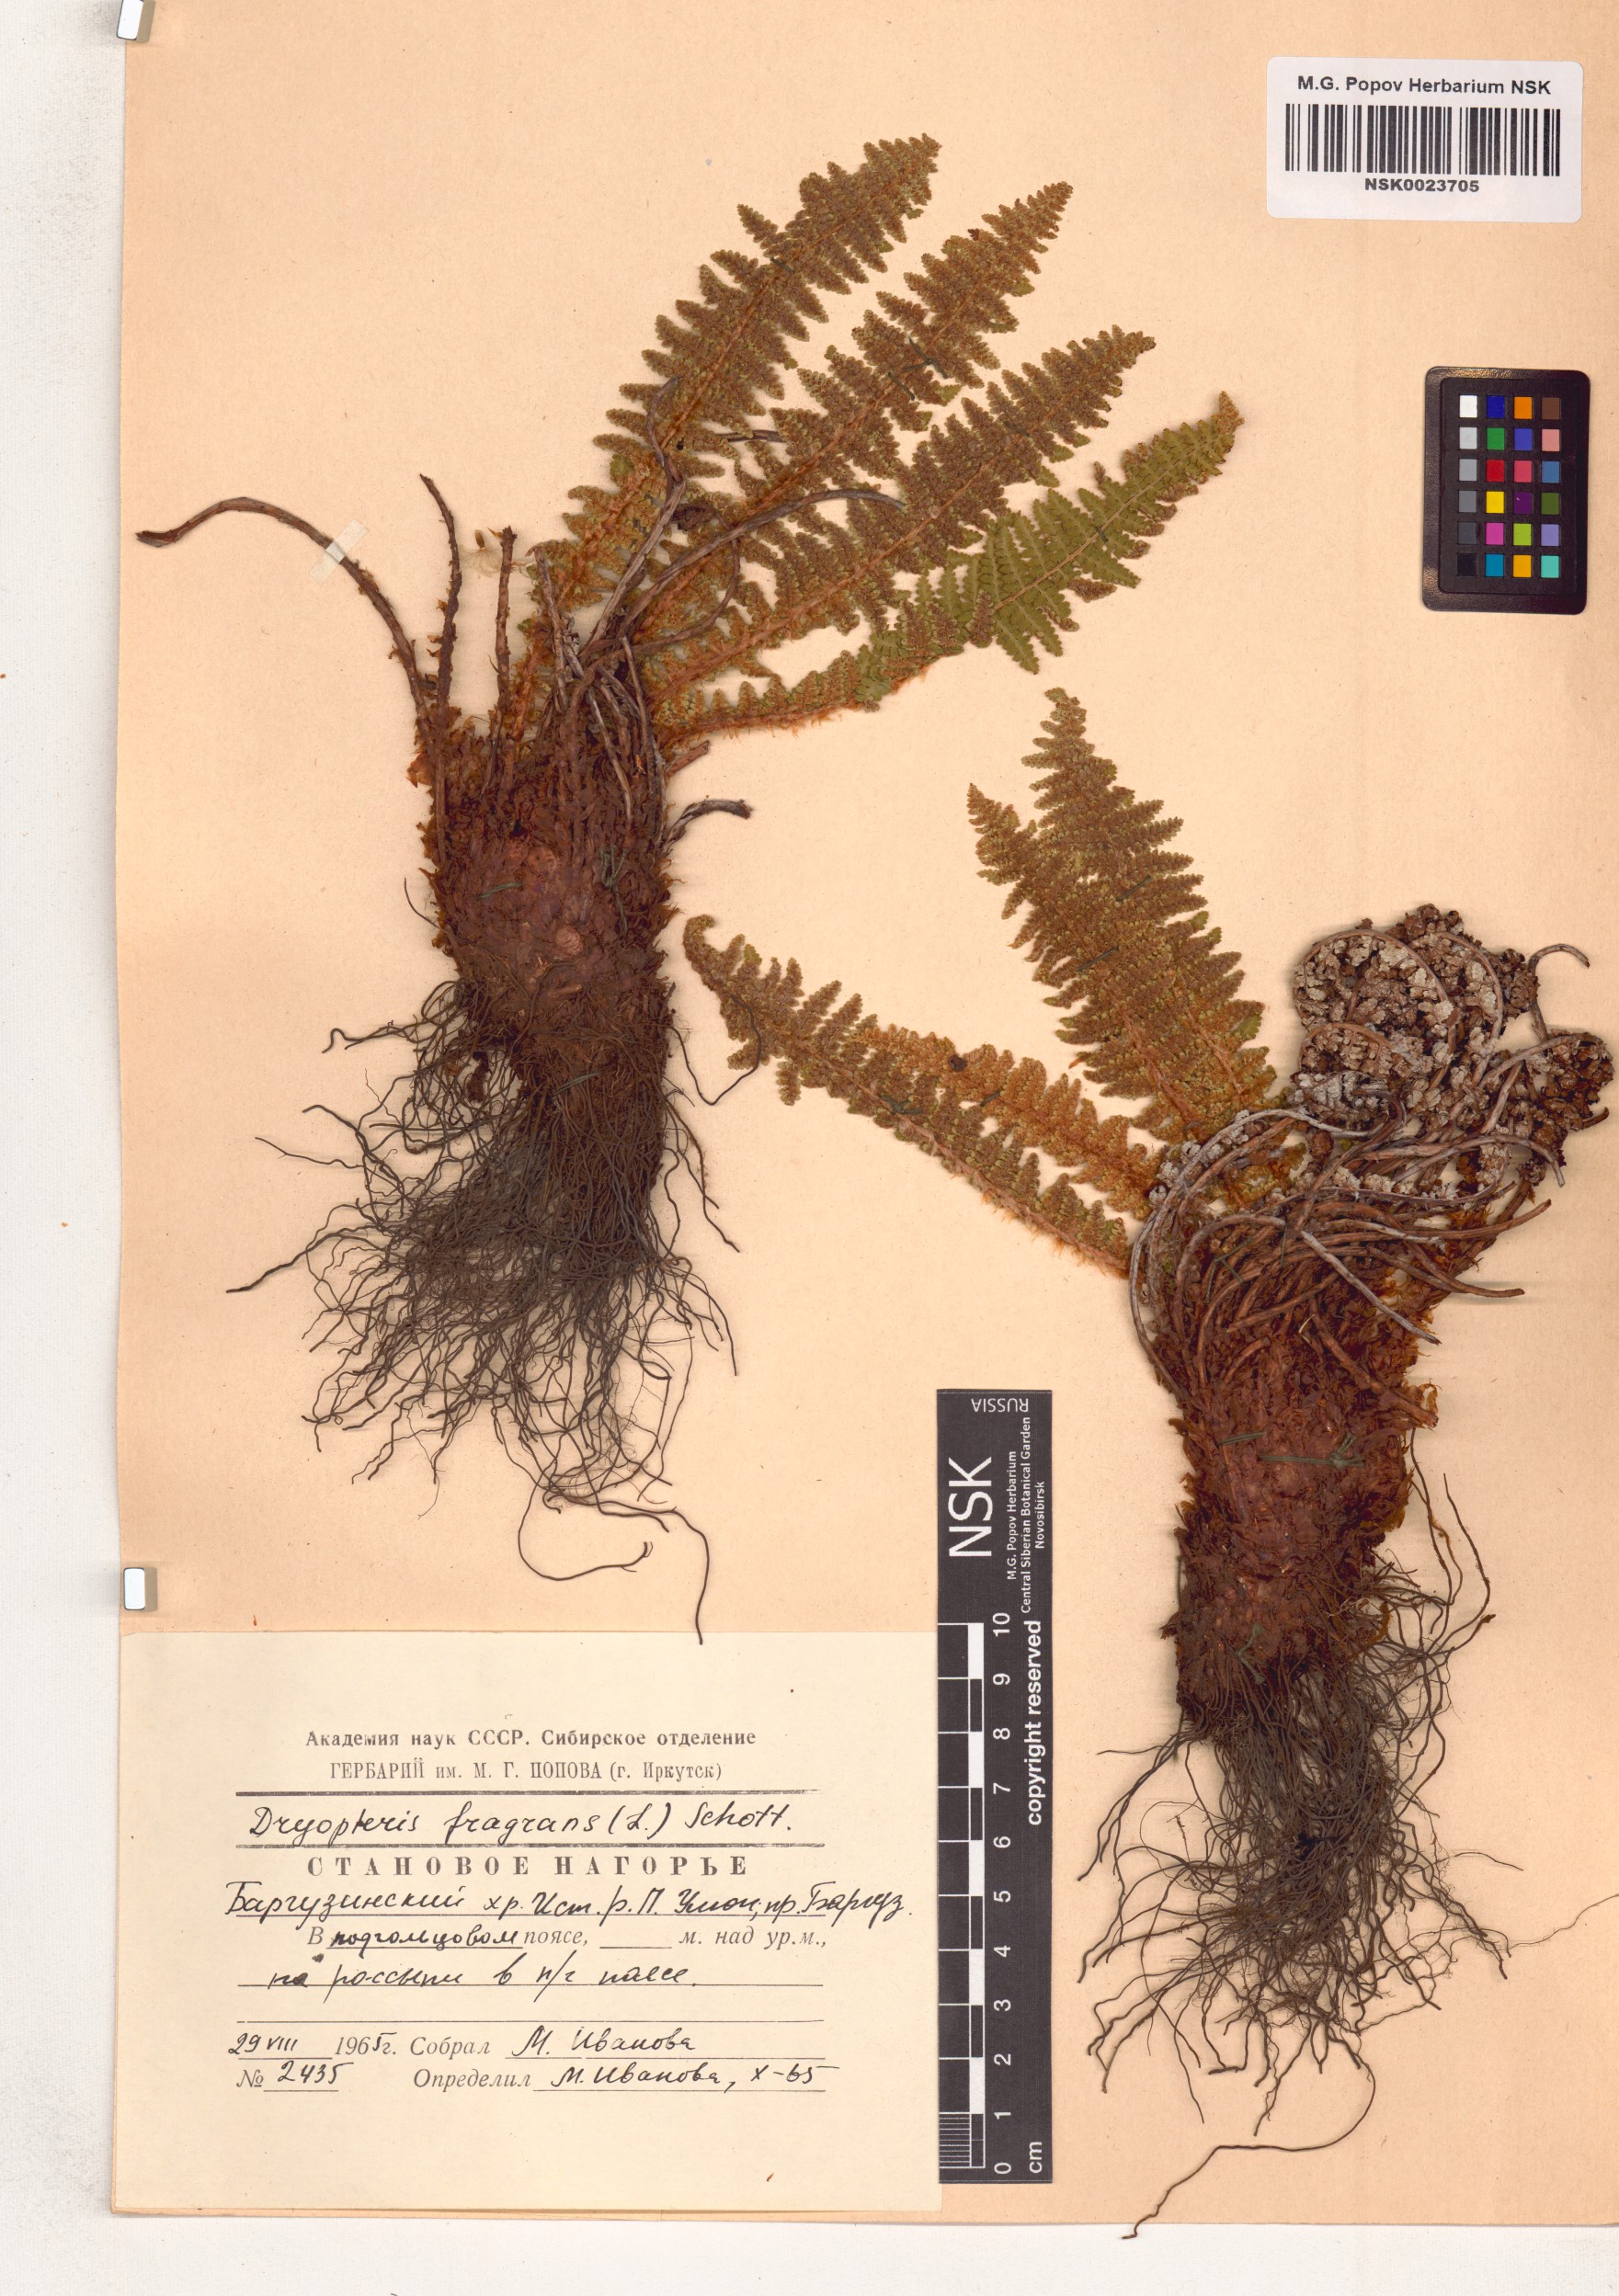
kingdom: Plantae
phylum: Tracheophyta
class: Polypodiopsida
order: Polypodiales
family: Dryopteridaceae
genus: Dryopteris
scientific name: Dryopteris fragrans
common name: Fragrant wood fern
